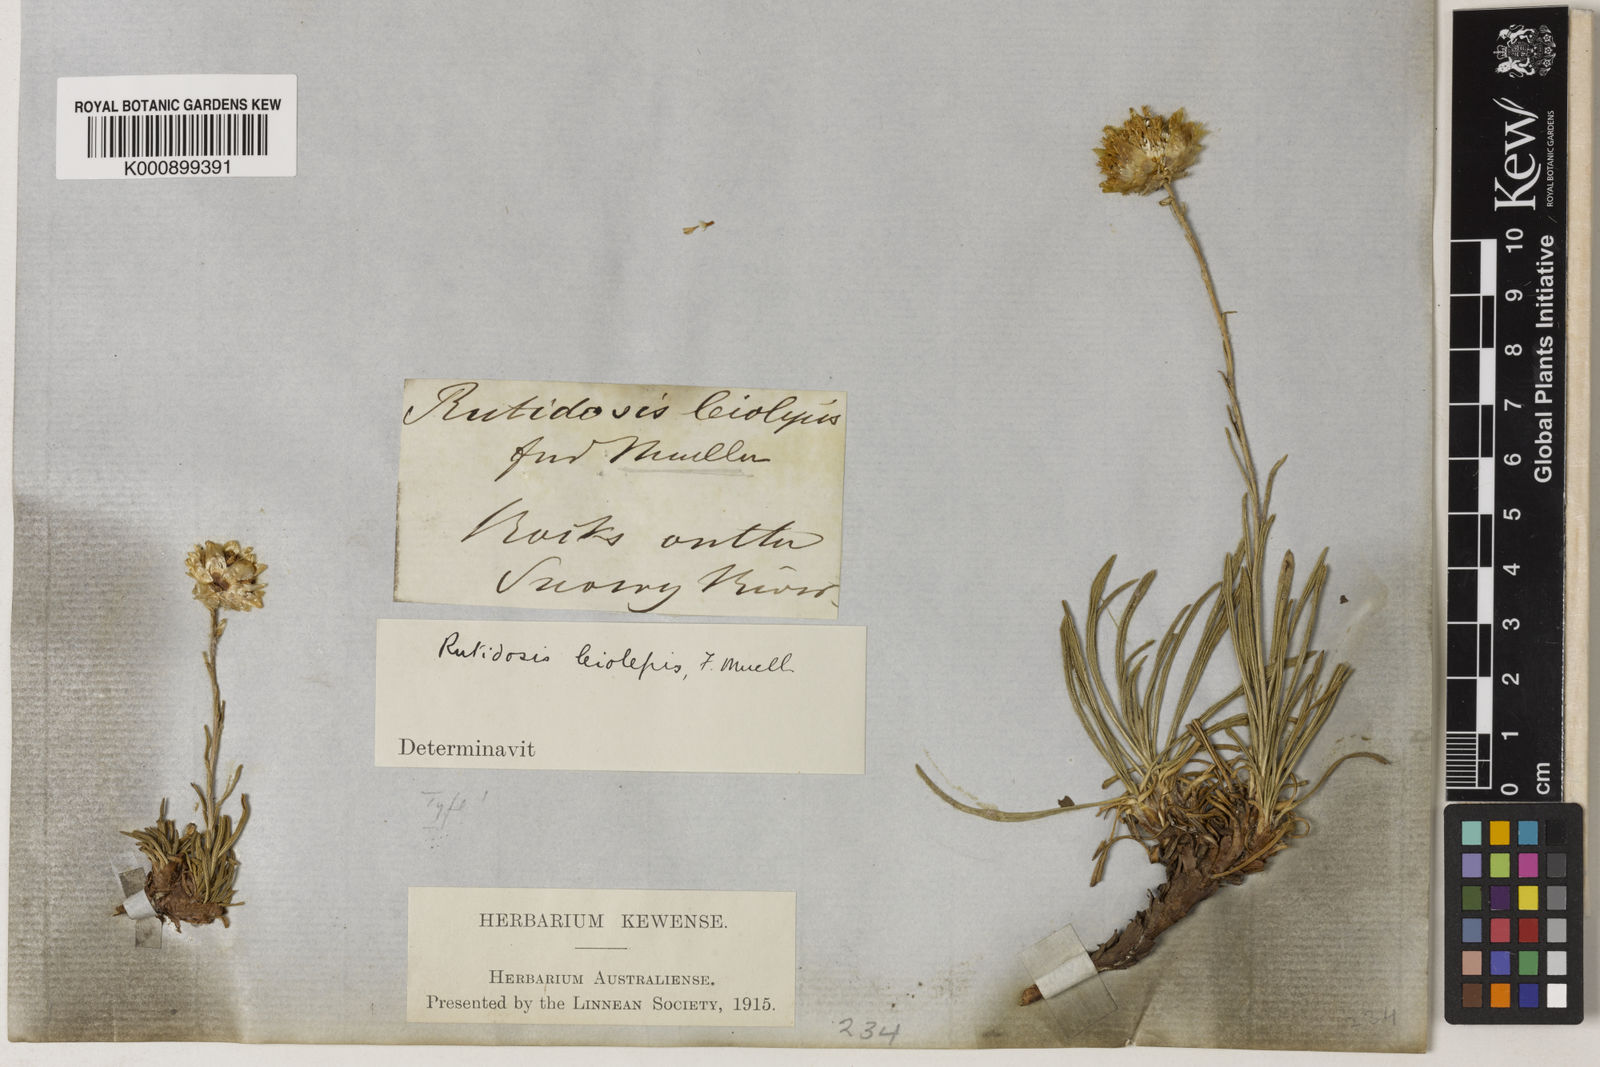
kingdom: Plantae
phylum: Tracheophyta
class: Magnoliopsida
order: Asterales
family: Asteraceae
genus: Rutidosis
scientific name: Rutidosis leiolepis
